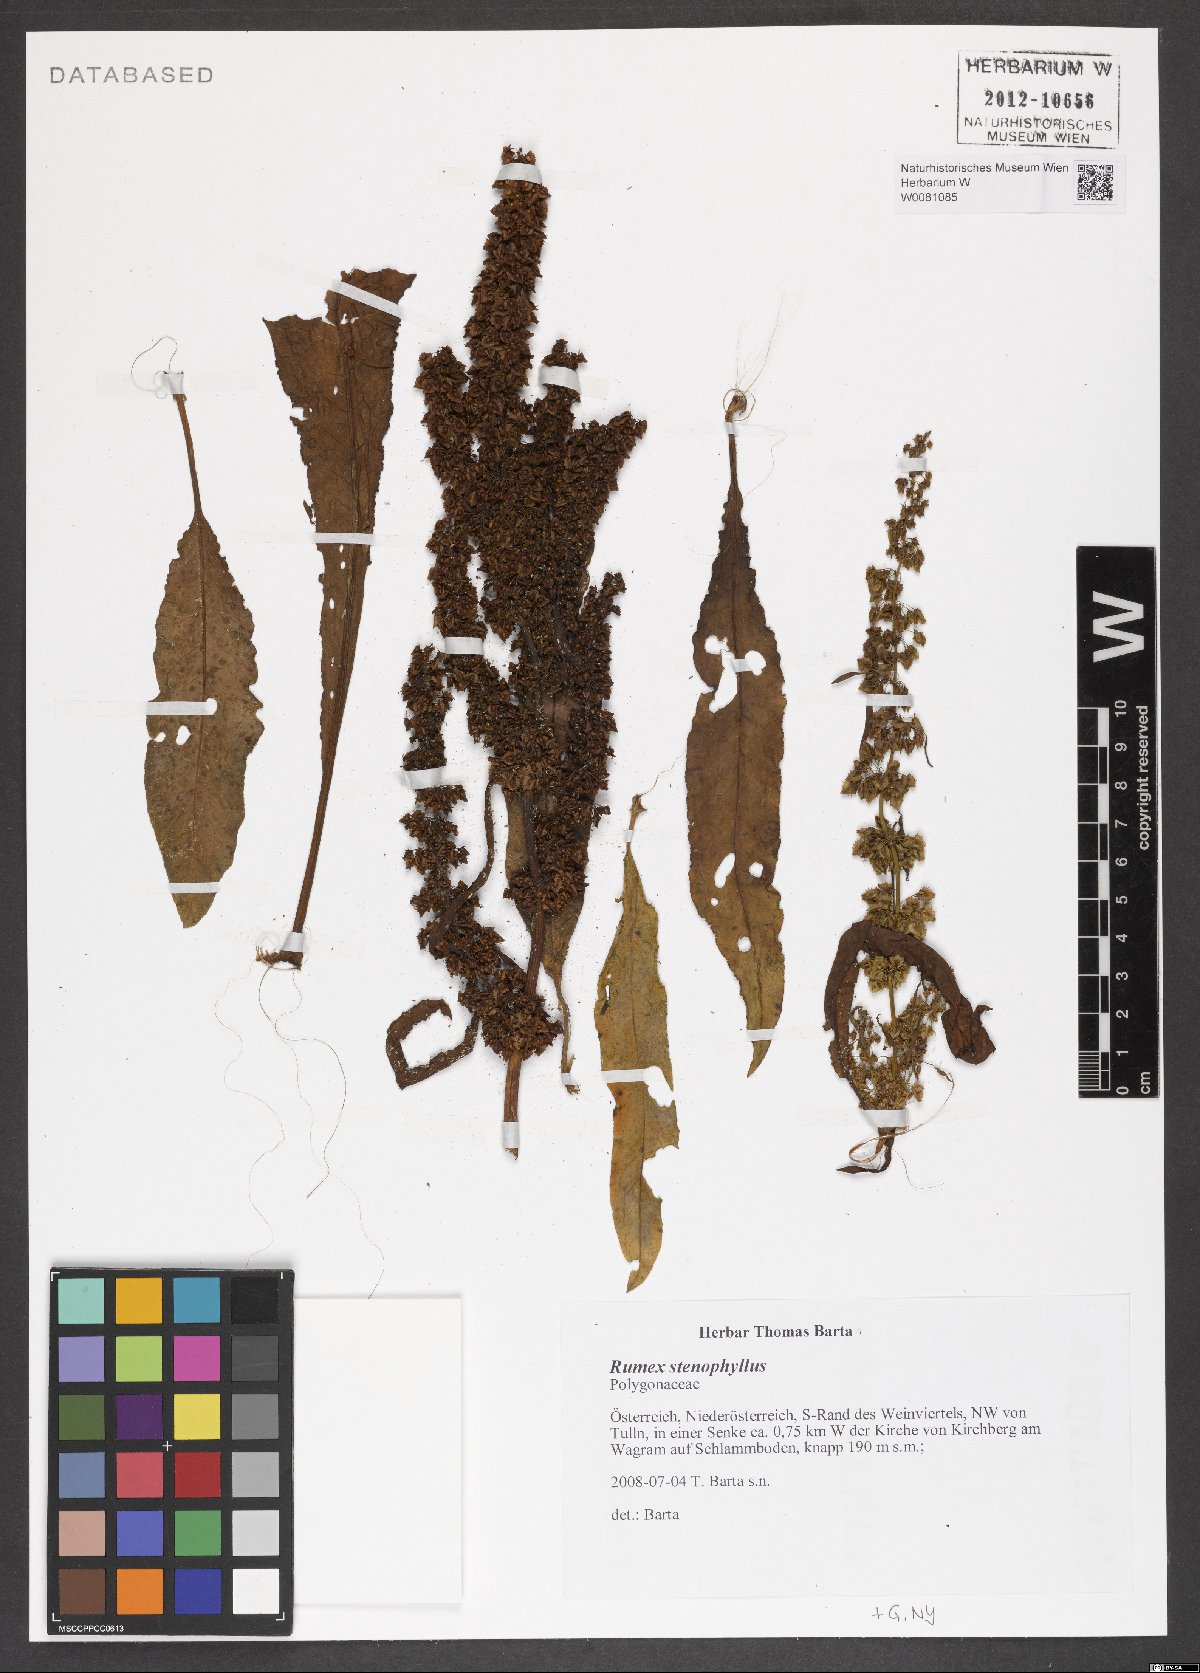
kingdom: Plantae
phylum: Tracheophyta
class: Magnoliopsida
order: Caryophyllales
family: Polygonaceae
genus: Rumex
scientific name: Rumex stenophyllus
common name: Narrowleaf dock
